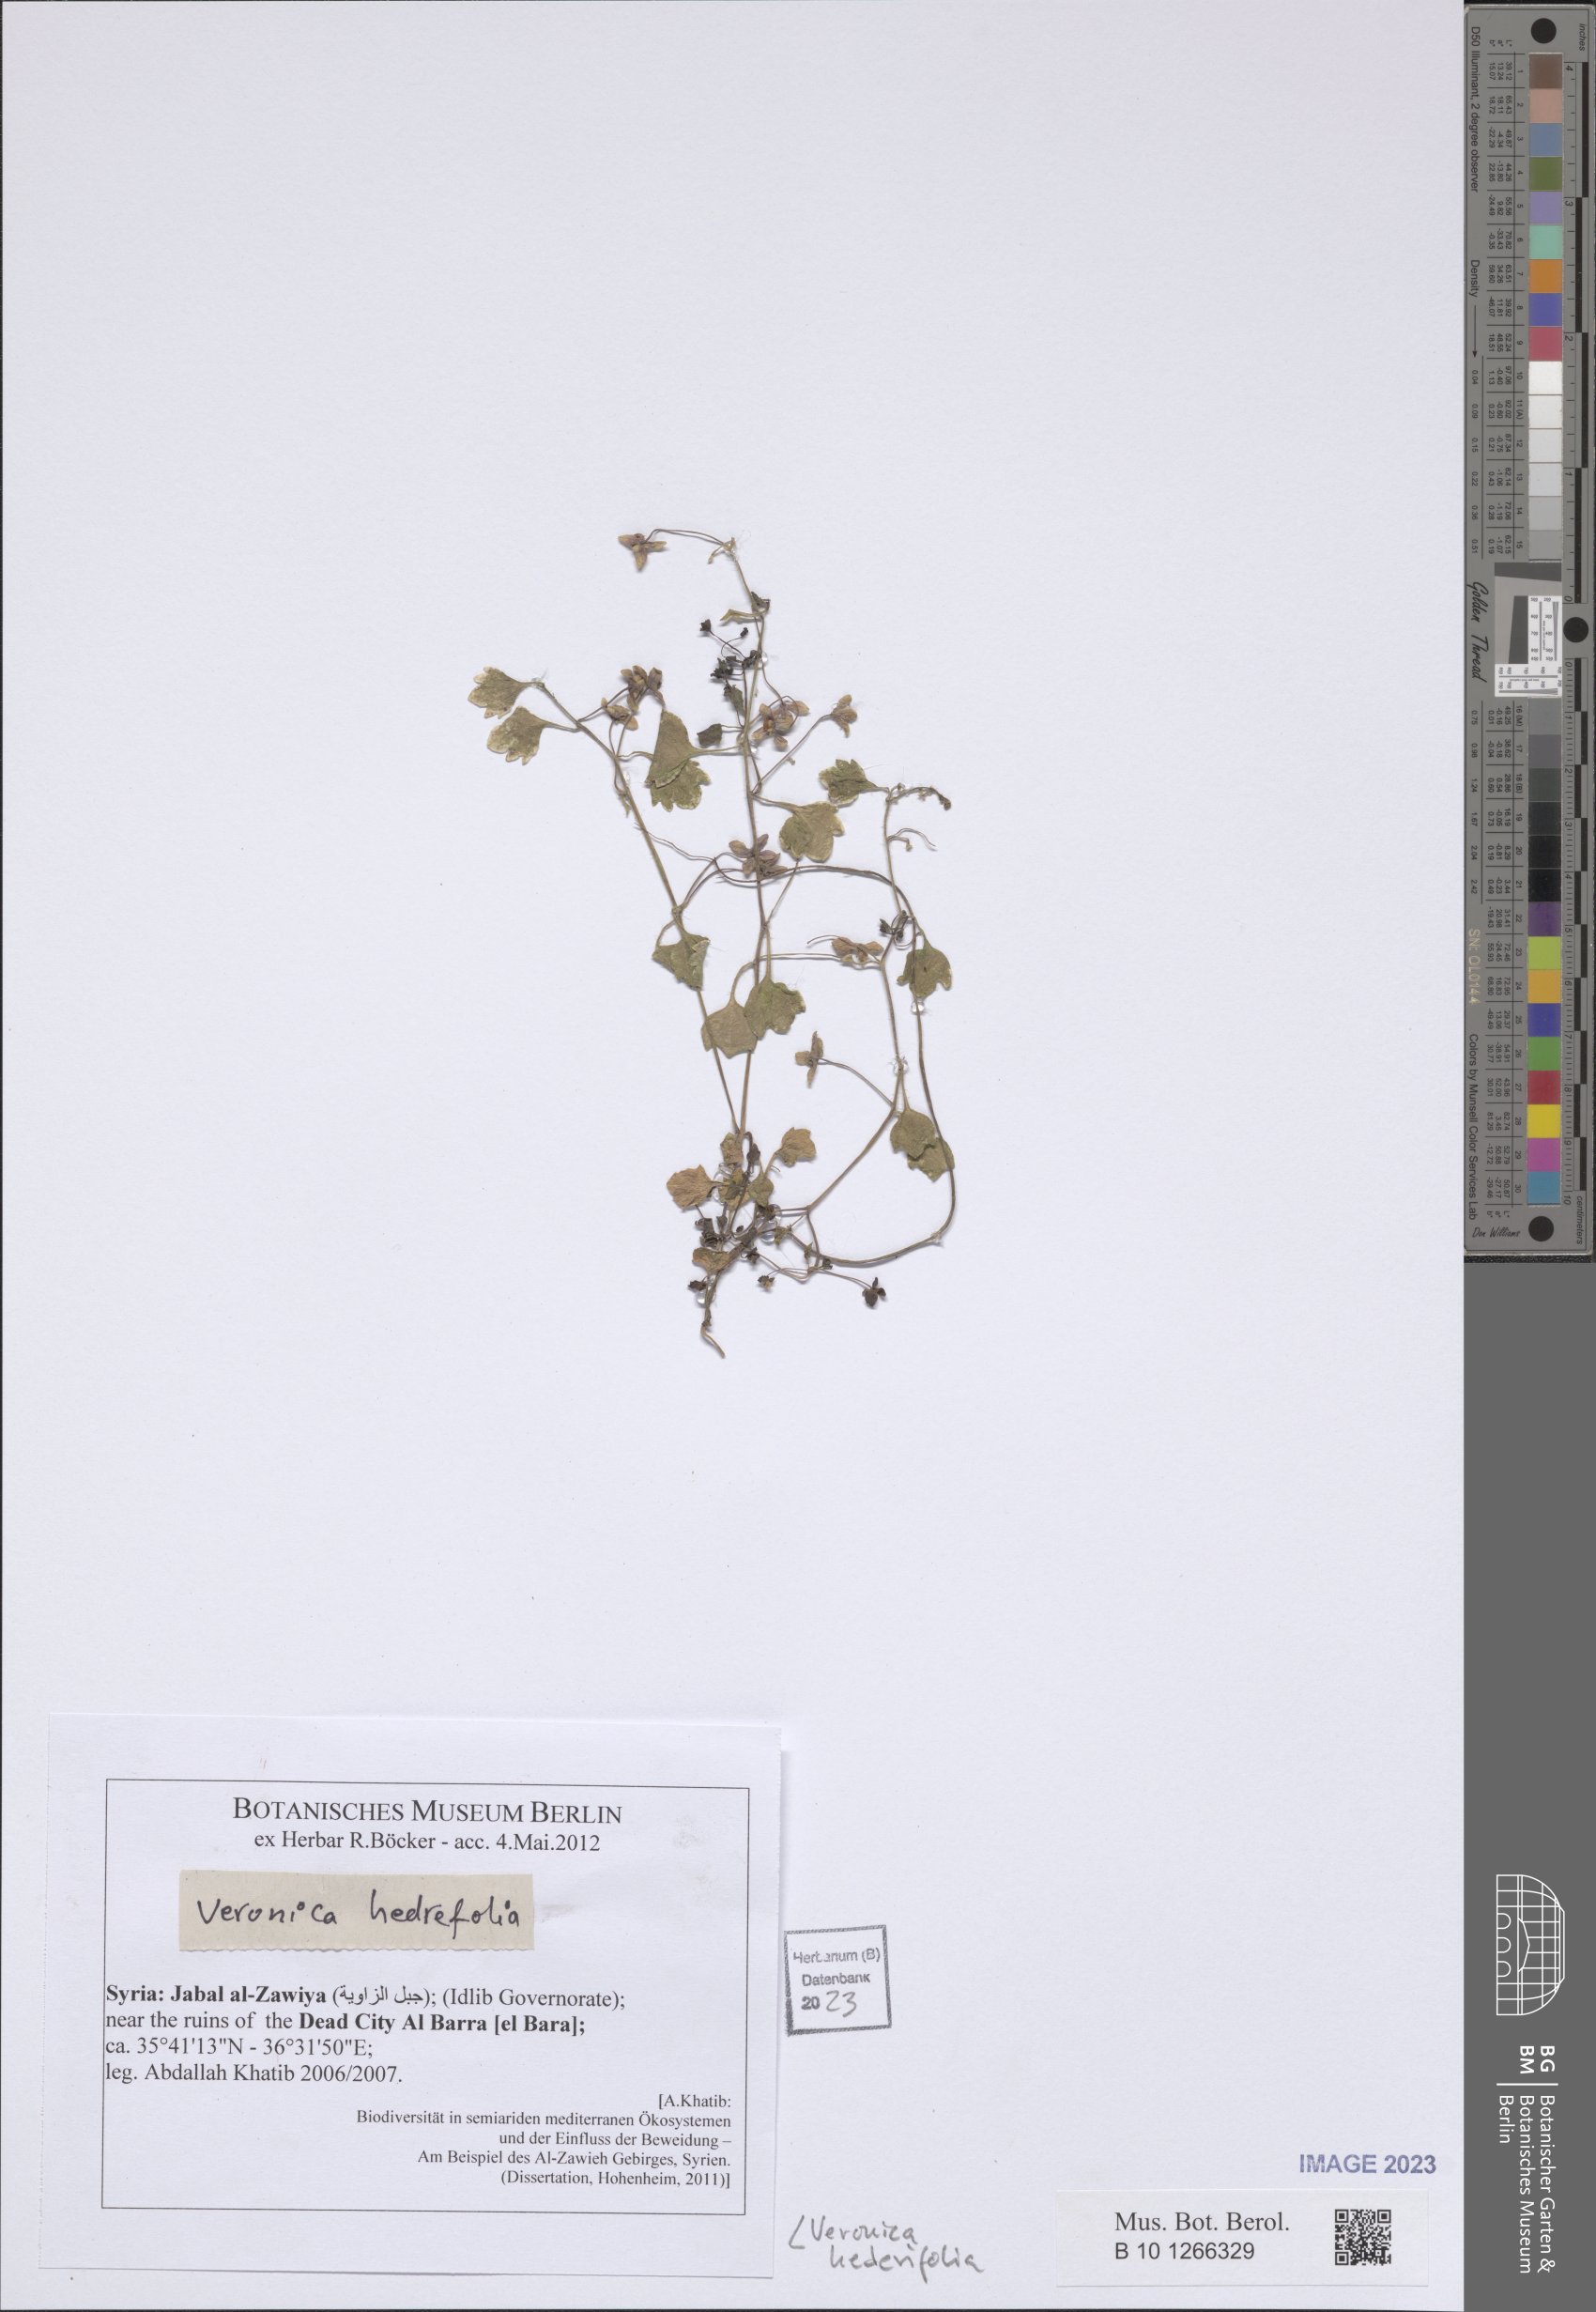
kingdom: Plantae
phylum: Tracheophyta
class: Magnoliopsida
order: Lamiales
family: Plantaginaceae
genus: Veronica
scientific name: Veronica hederifolia
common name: Ivy-leaved speedwell
